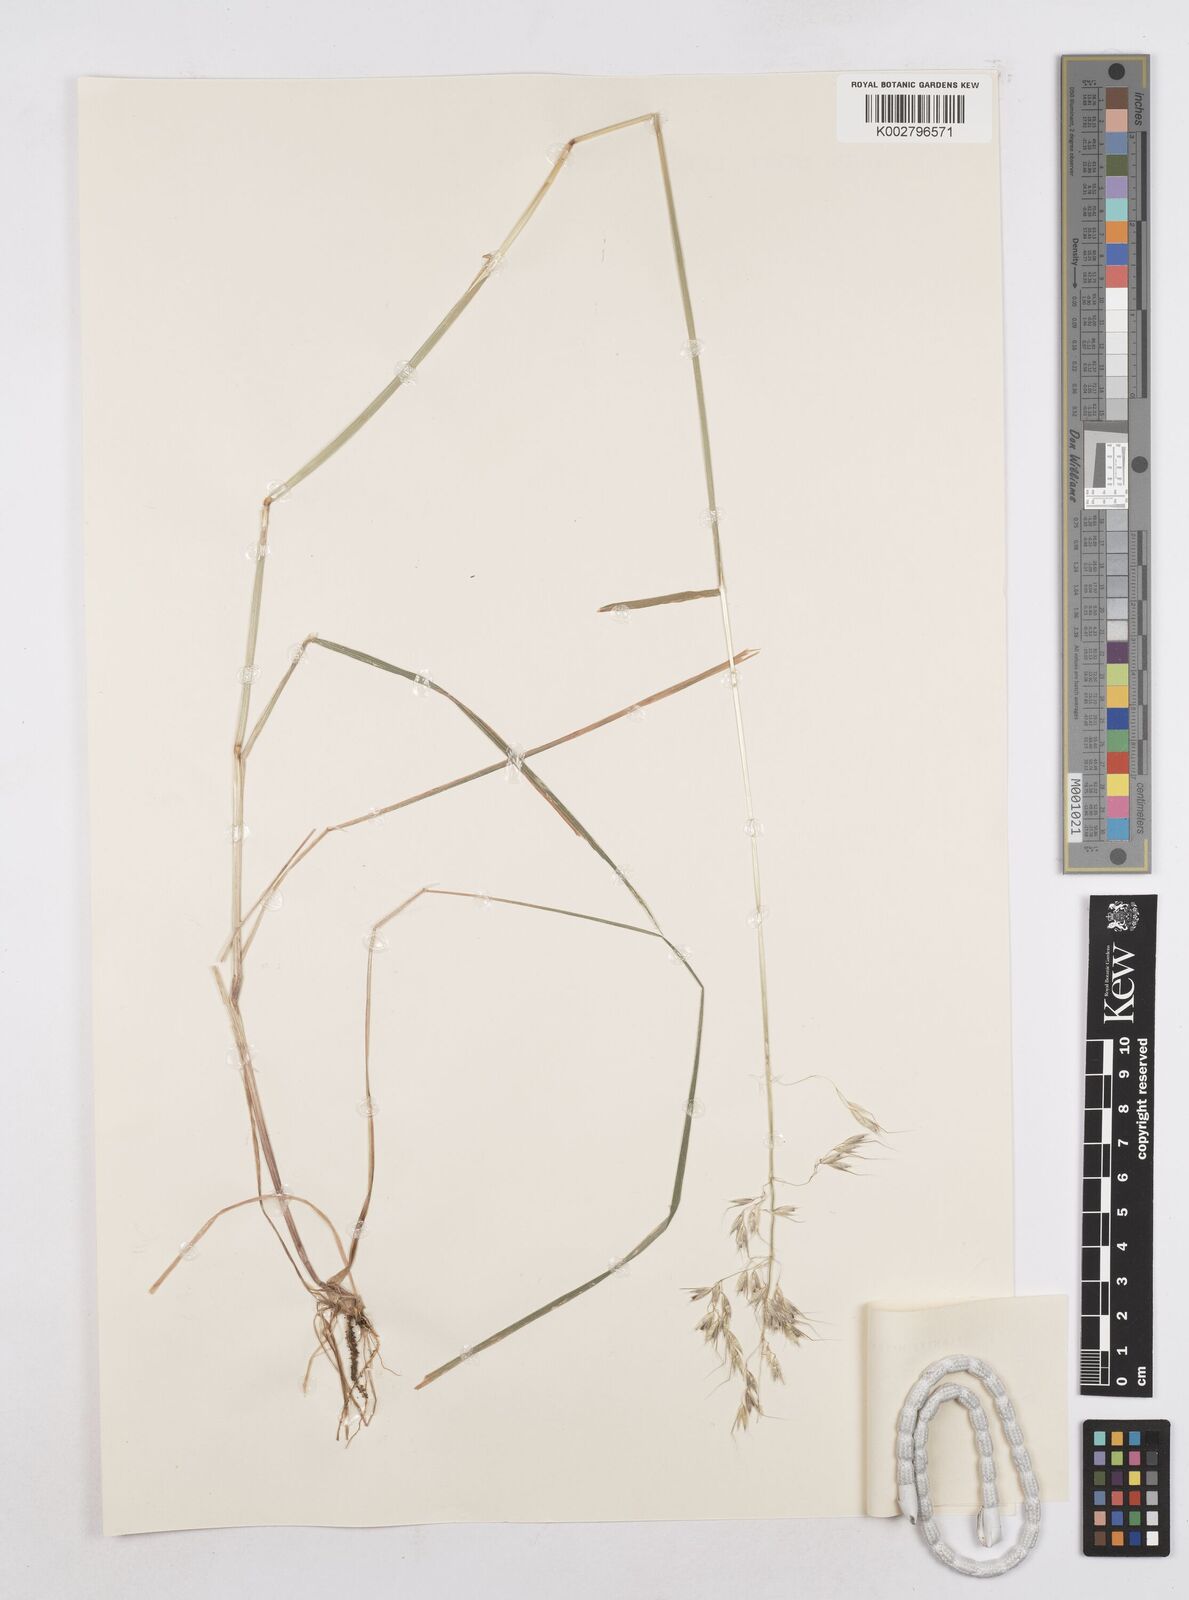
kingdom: Plantae
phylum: Tracheophyta
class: Liliopsida
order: Poales
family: Poaceae
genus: Arrhenatherum
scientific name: Arrhenatherum elatius
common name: Tall oatgrass
